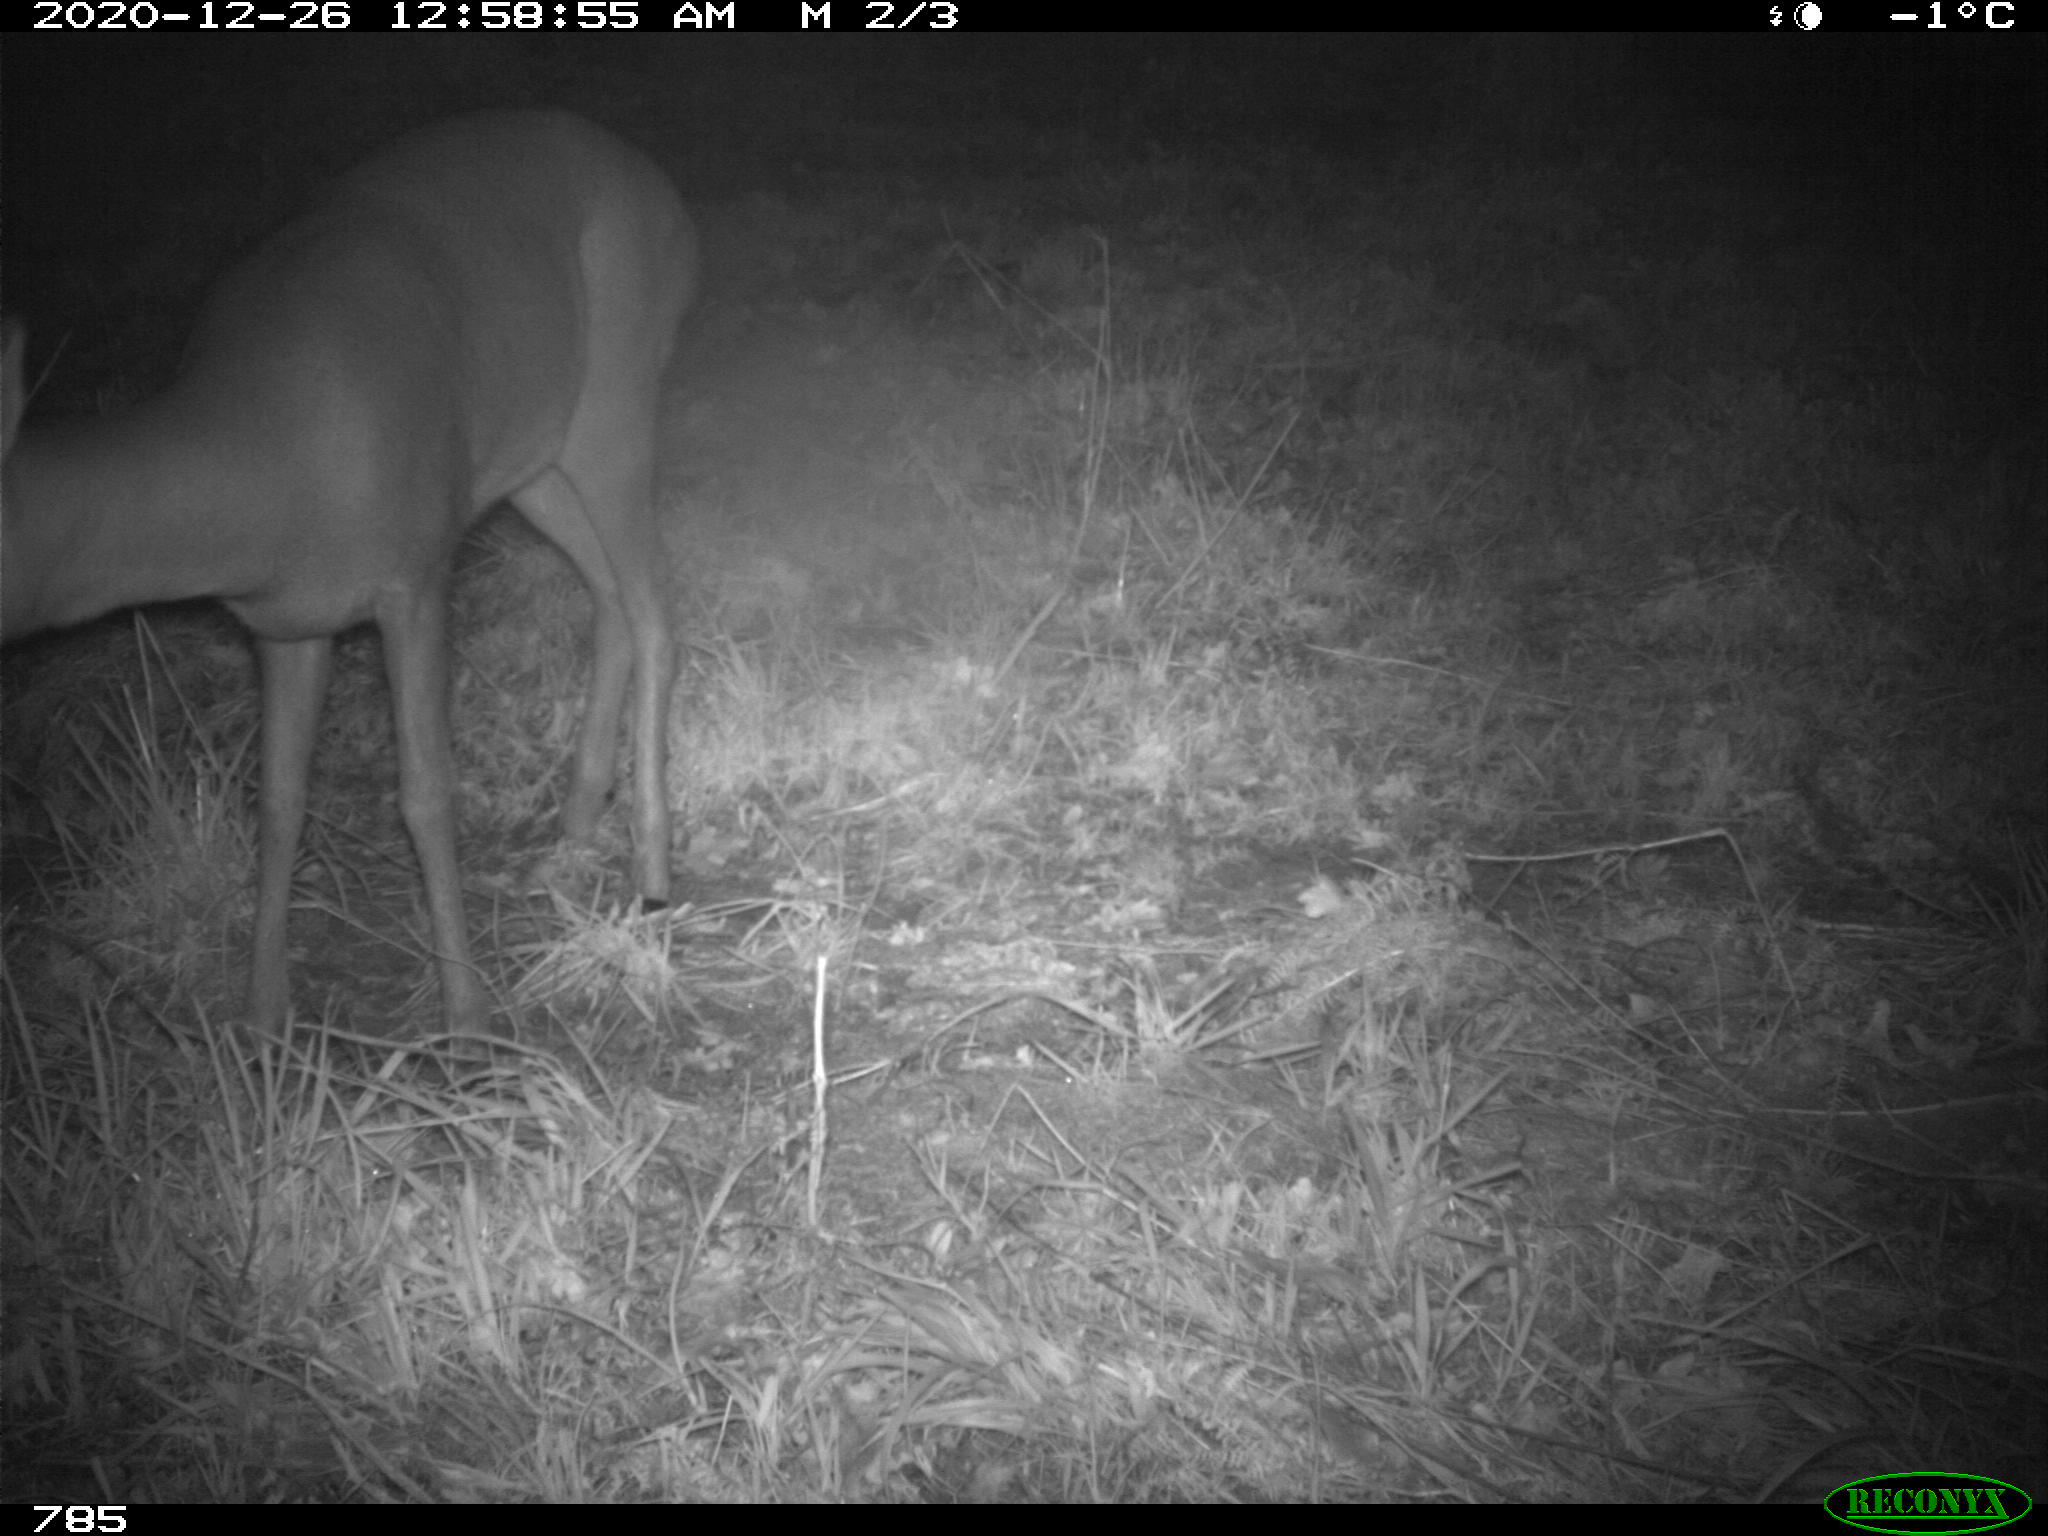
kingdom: Animalia
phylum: Chordata
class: Mammalia
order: Artiodactyla
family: Cervidae
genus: Capreolus
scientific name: Capreolus capreolus
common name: Western roe deer
